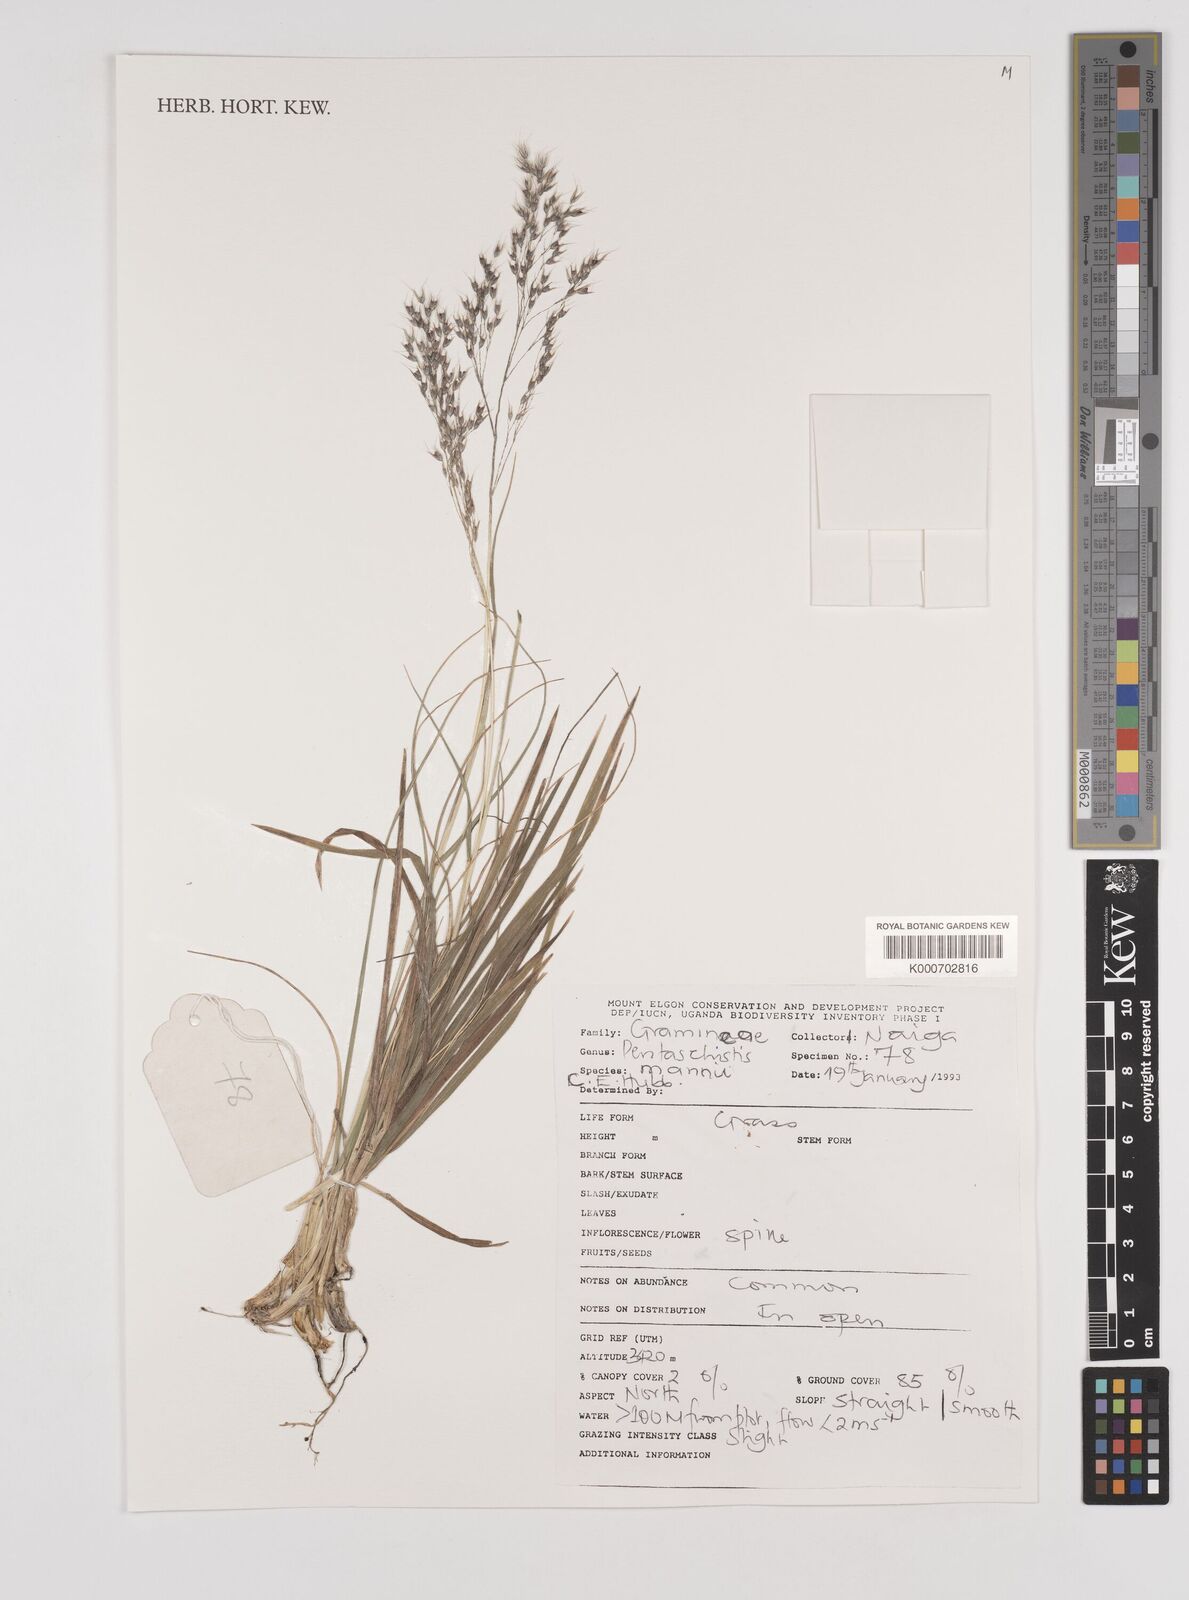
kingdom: Plantae
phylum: Tracheophyta
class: Liliopsida
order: Poales
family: Poaceae
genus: Pentaschistis
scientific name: Pentaschistis
